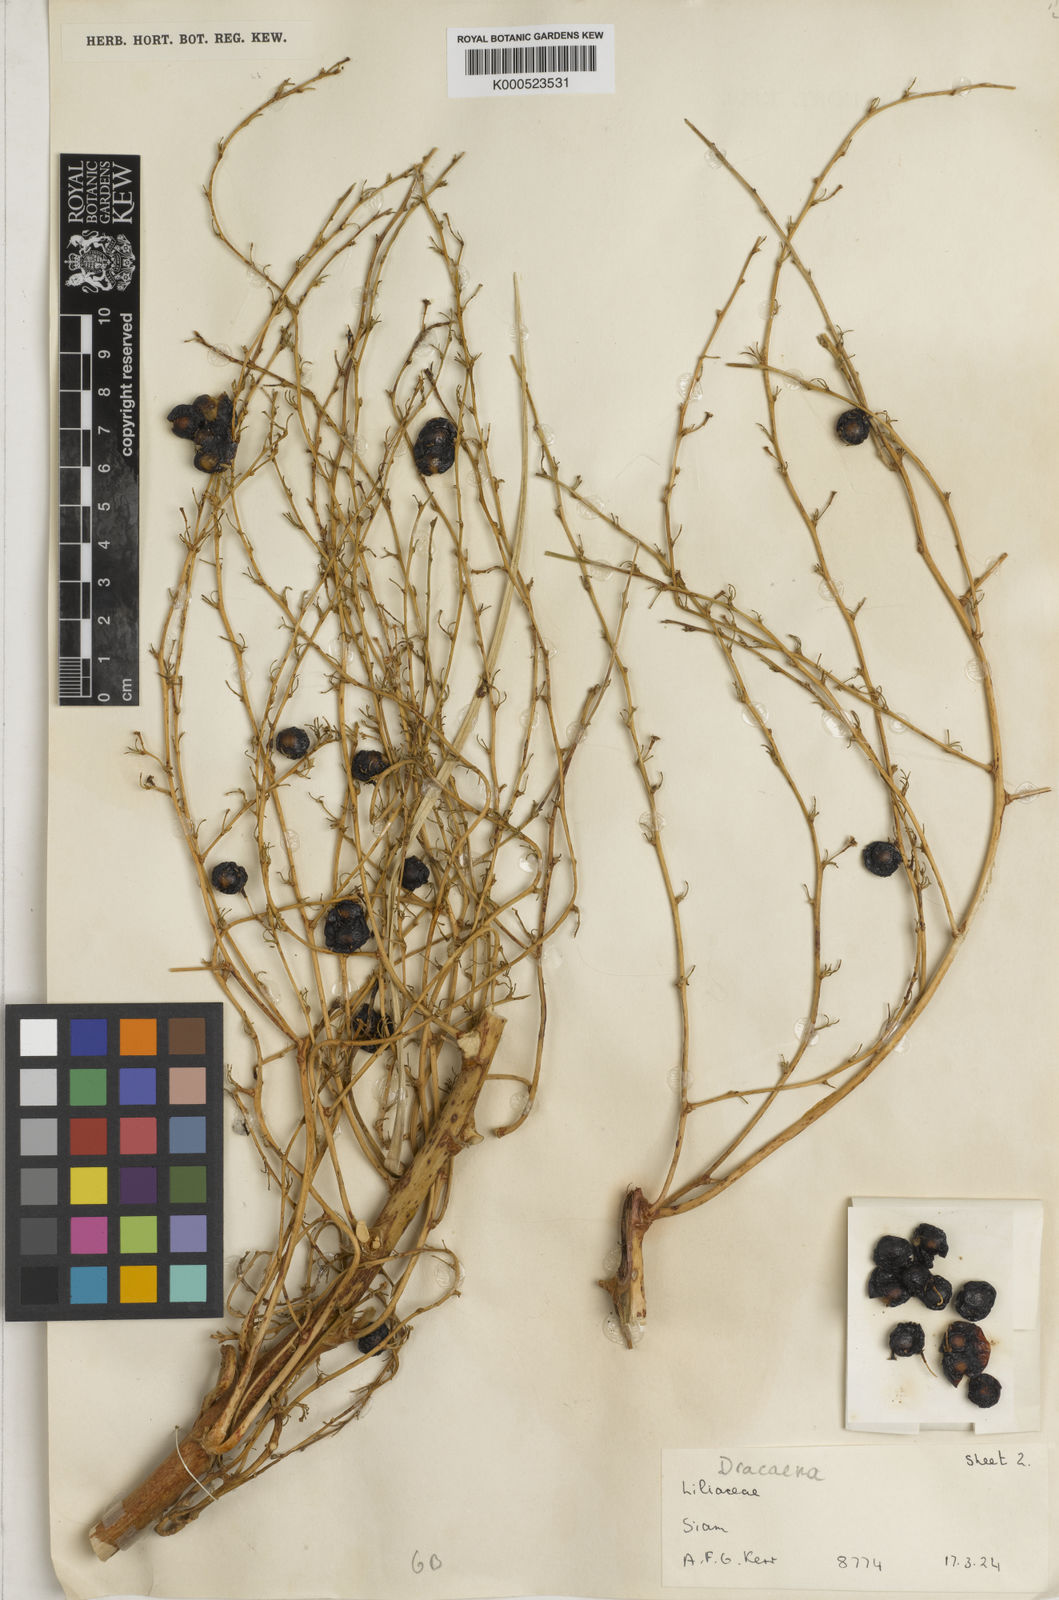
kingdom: Plantae
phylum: Tracheophyta
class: Liliopsida
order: Asparagales
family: Asparagaceae
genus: Dracaena
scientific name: Dracaena
